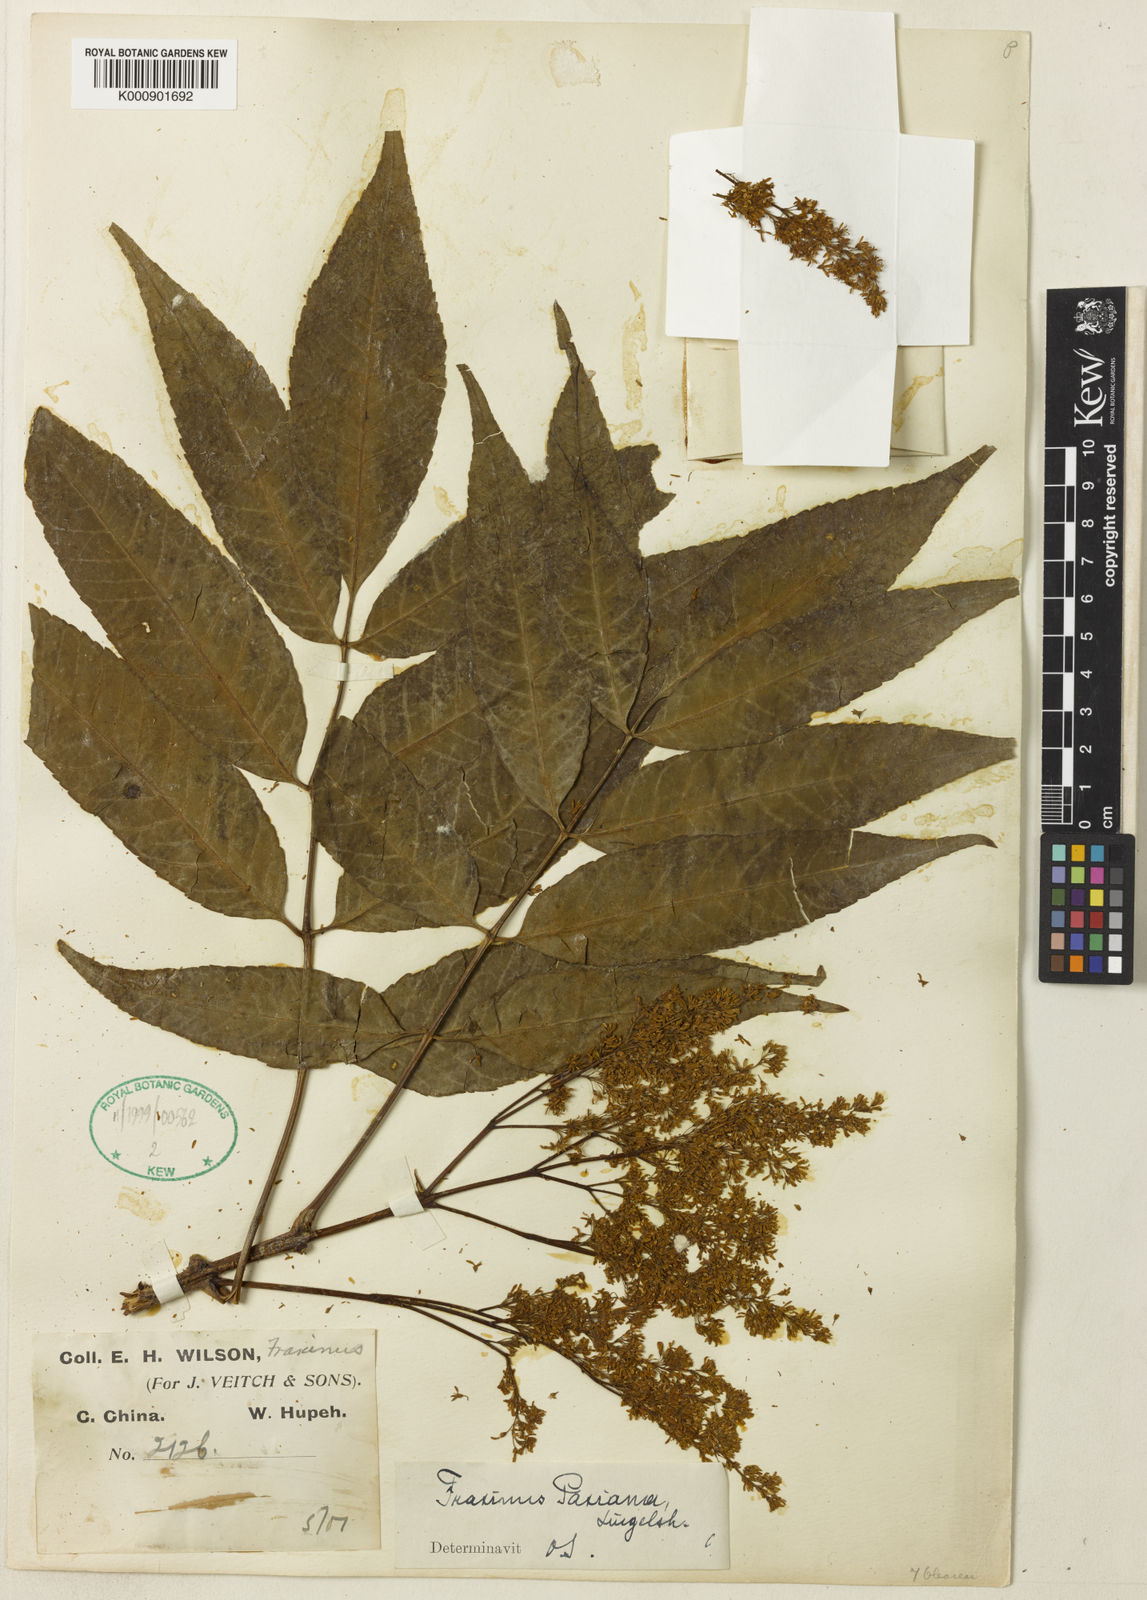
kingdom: Plantae
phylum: Tracheophyta
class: Magnoliopsida
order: Lamiales
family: Oleaceae
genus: Fraxinus
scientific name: Fraxinus paxiana
